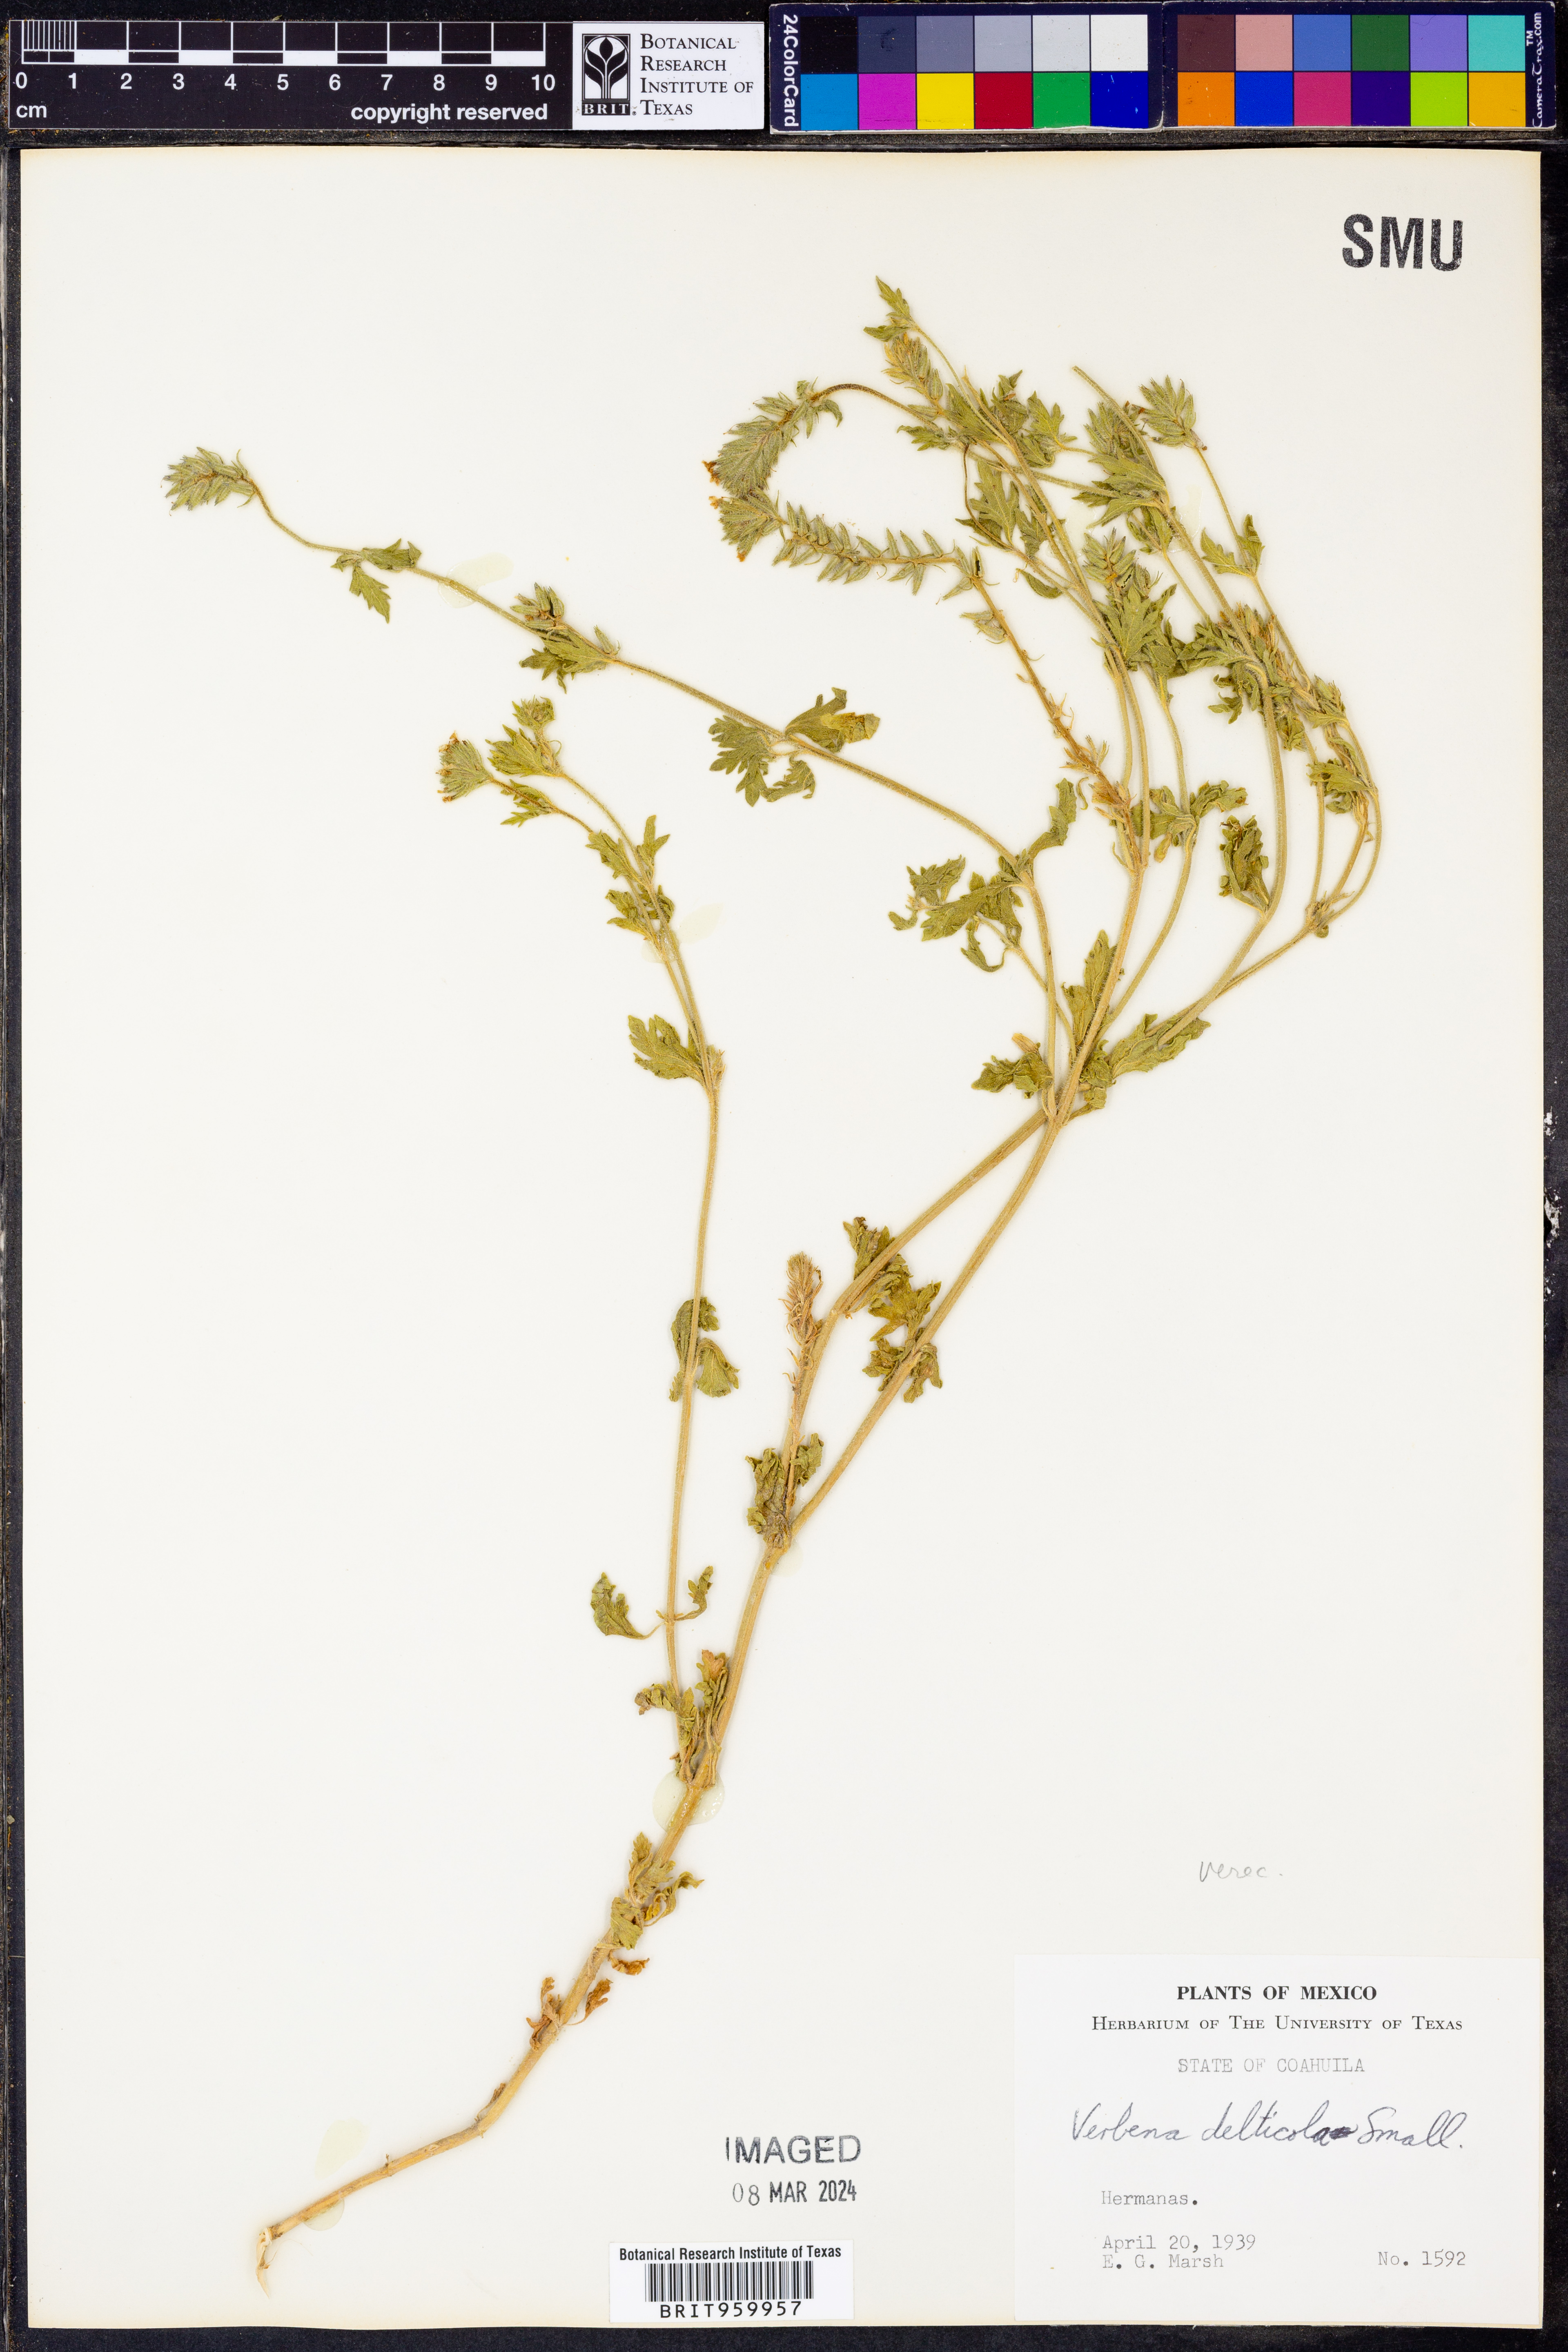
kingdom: Plantae
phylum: Tracheophyta
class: Magnoliopsida
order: Lamiales
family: Verbenaceae
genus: Verbena
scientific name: Verbena quadrangulata
